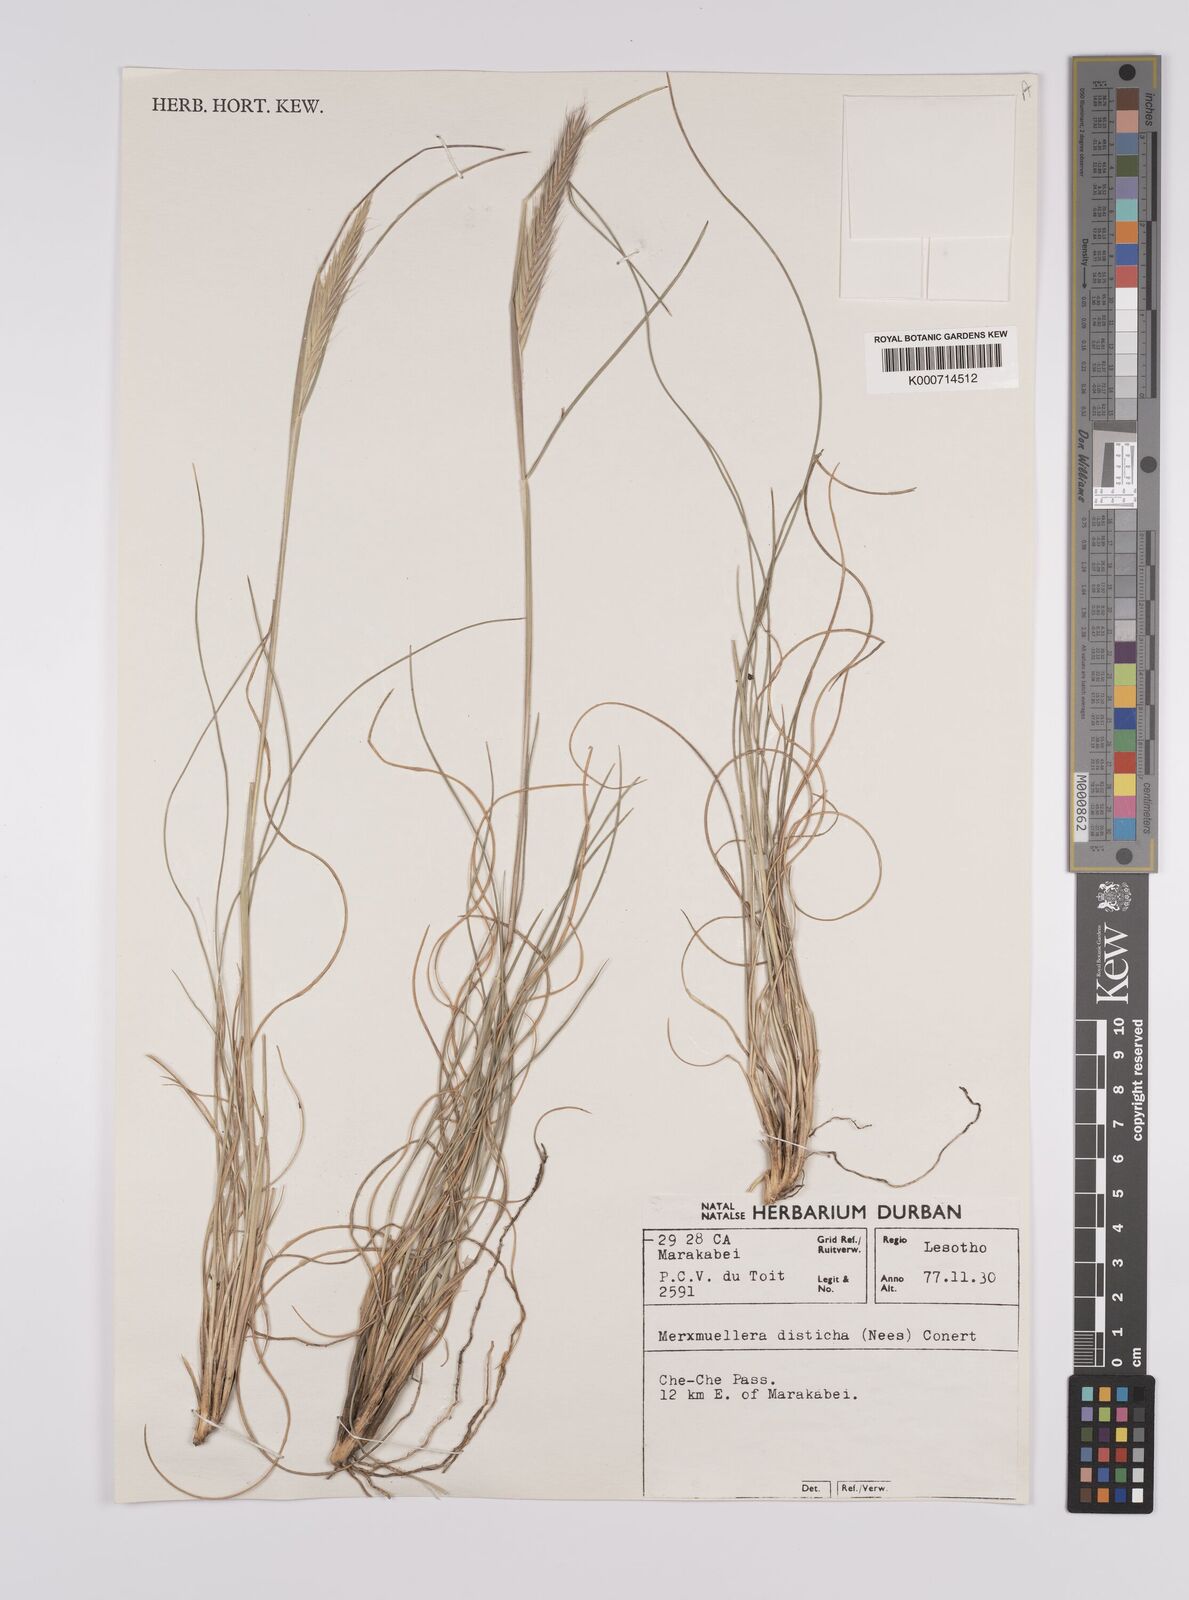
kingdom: Plantae
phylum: Tracheophyta
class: Liliopsida
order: Poales
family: Poaceae
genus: Tenaxia
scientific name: Tenaxia disticha
